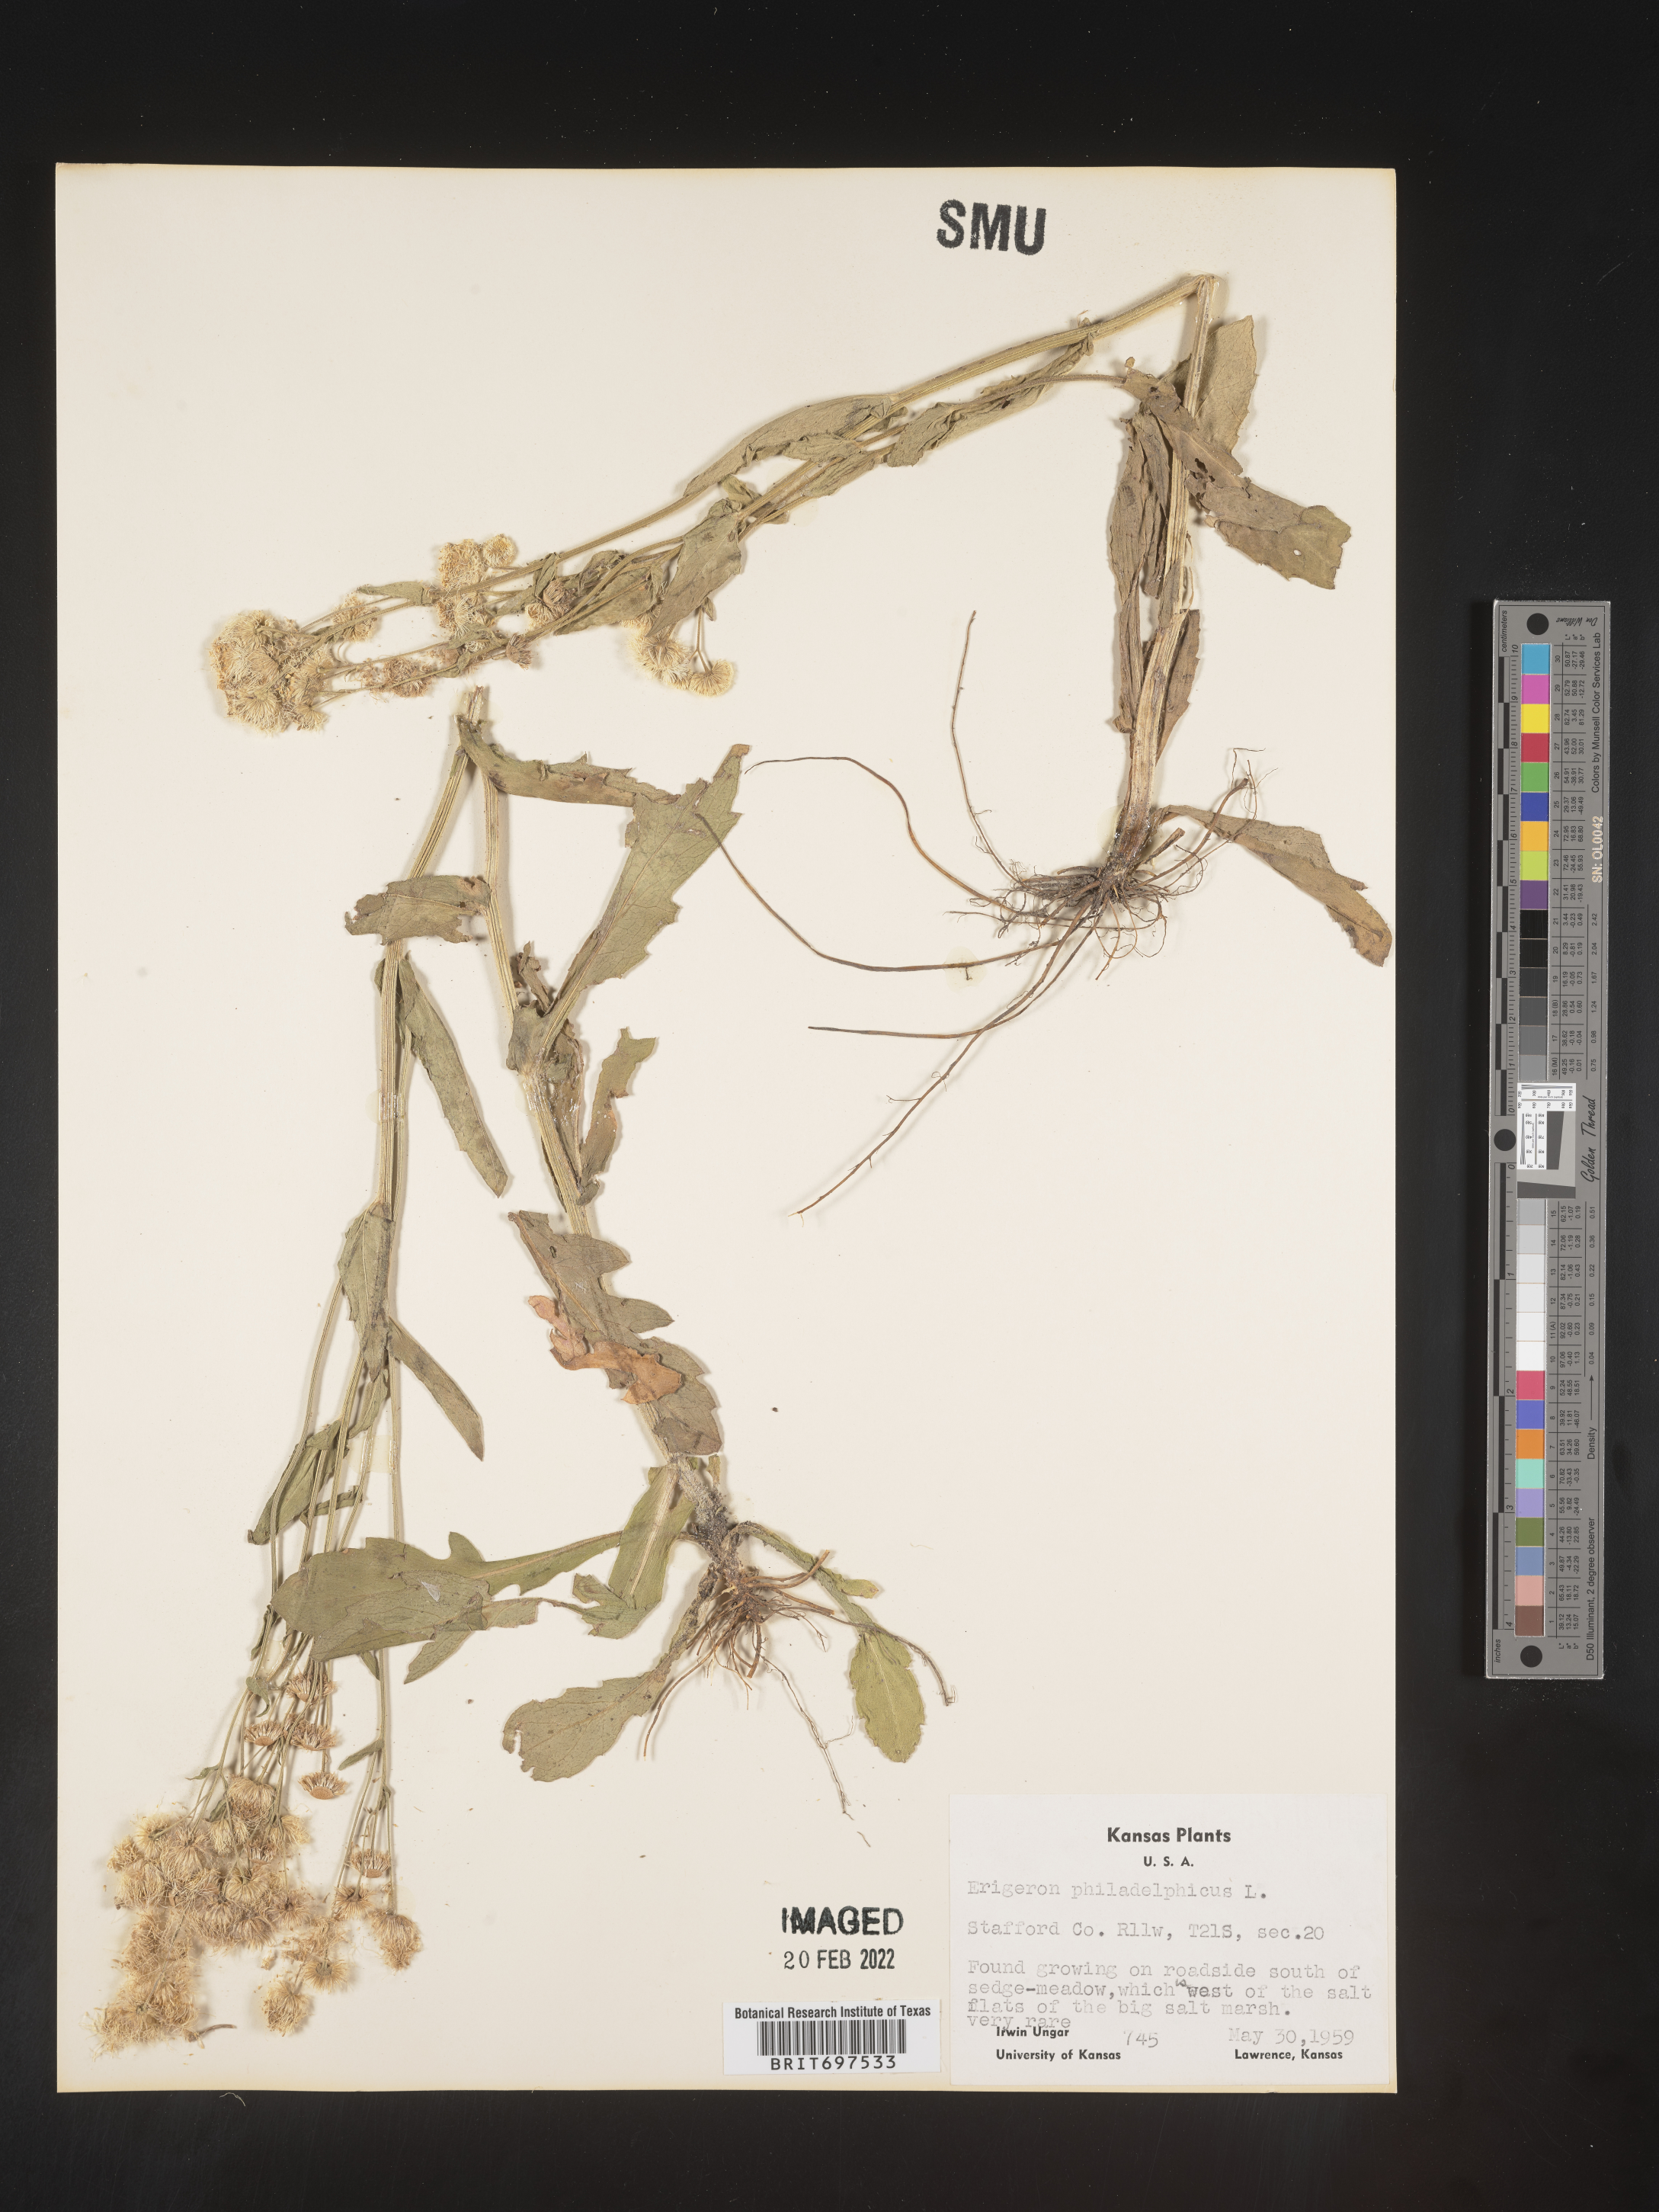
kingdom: Plantae
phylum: Tracheophyta
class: Magnoliopsida
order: Asterales
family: Asteraceae
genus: Erigeron
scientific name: Erigeron philadelphicus
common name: Robin's-plantain
